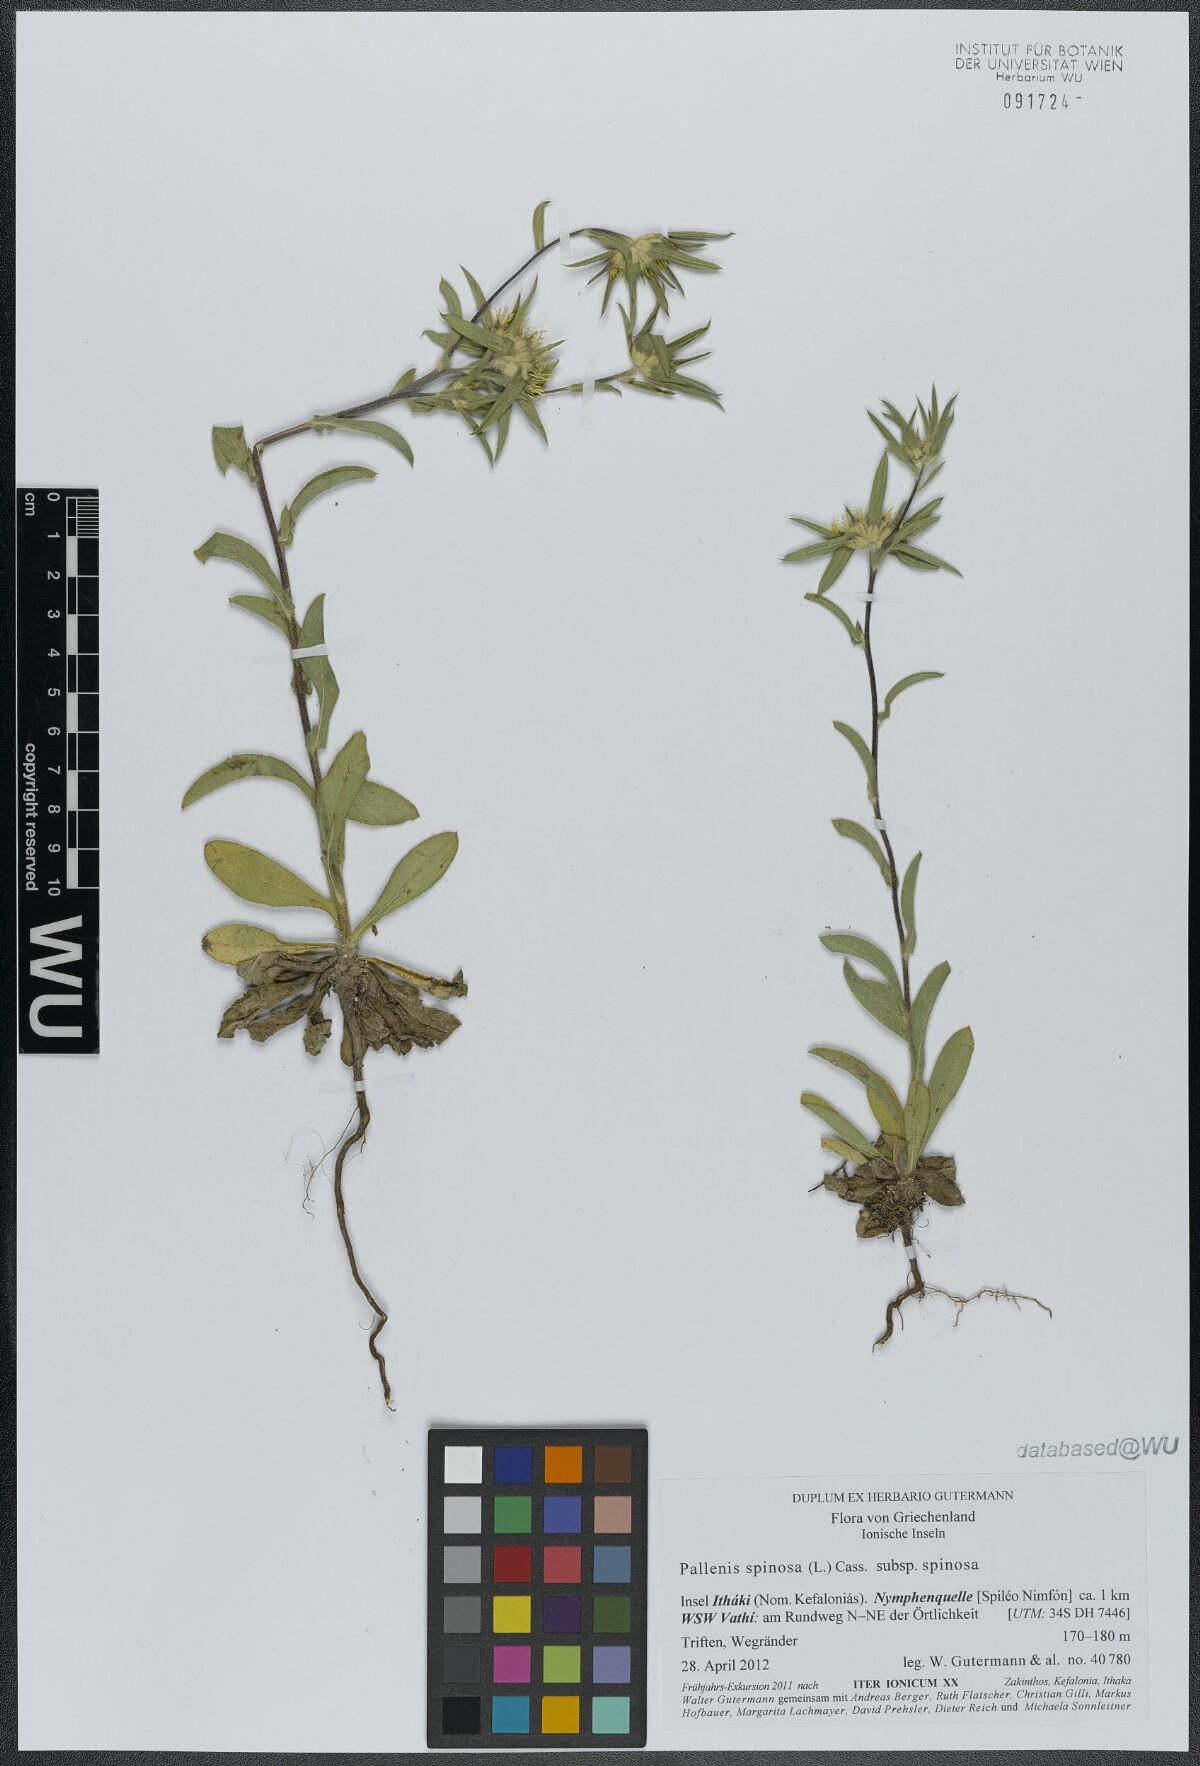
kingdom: Plantae
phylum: Tracheophyta
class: Magnoliopsida
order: Asterales
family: Asteraceae
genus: Pallenis
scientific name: Pallenis spinosa
